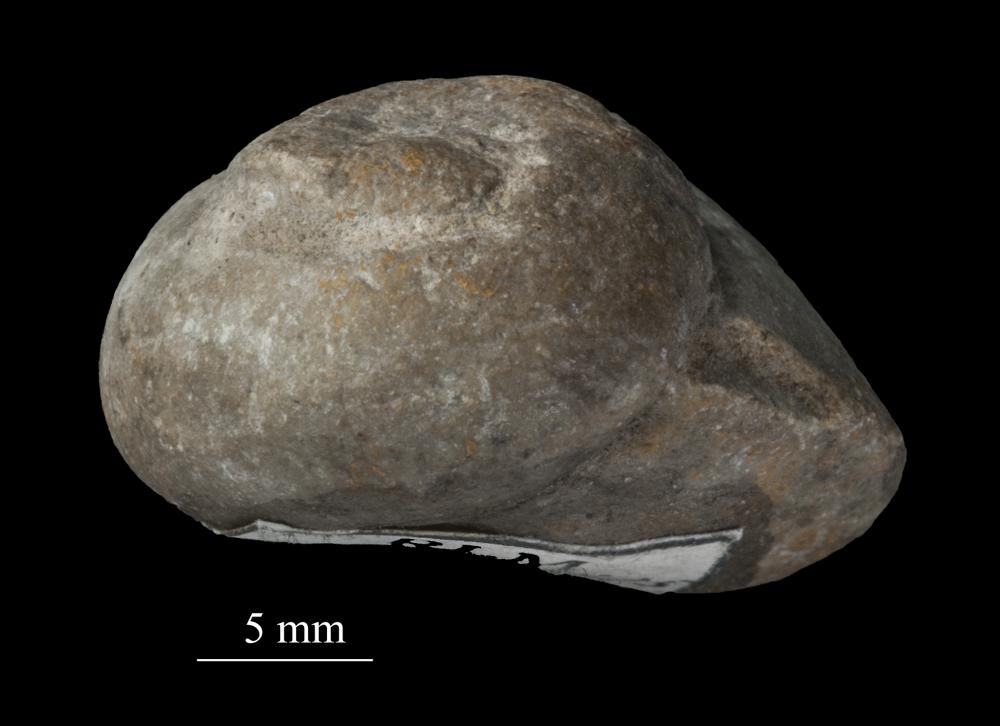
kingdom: Animalia
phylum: Mollusca
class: Gastropoda
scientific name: Gastropoda
